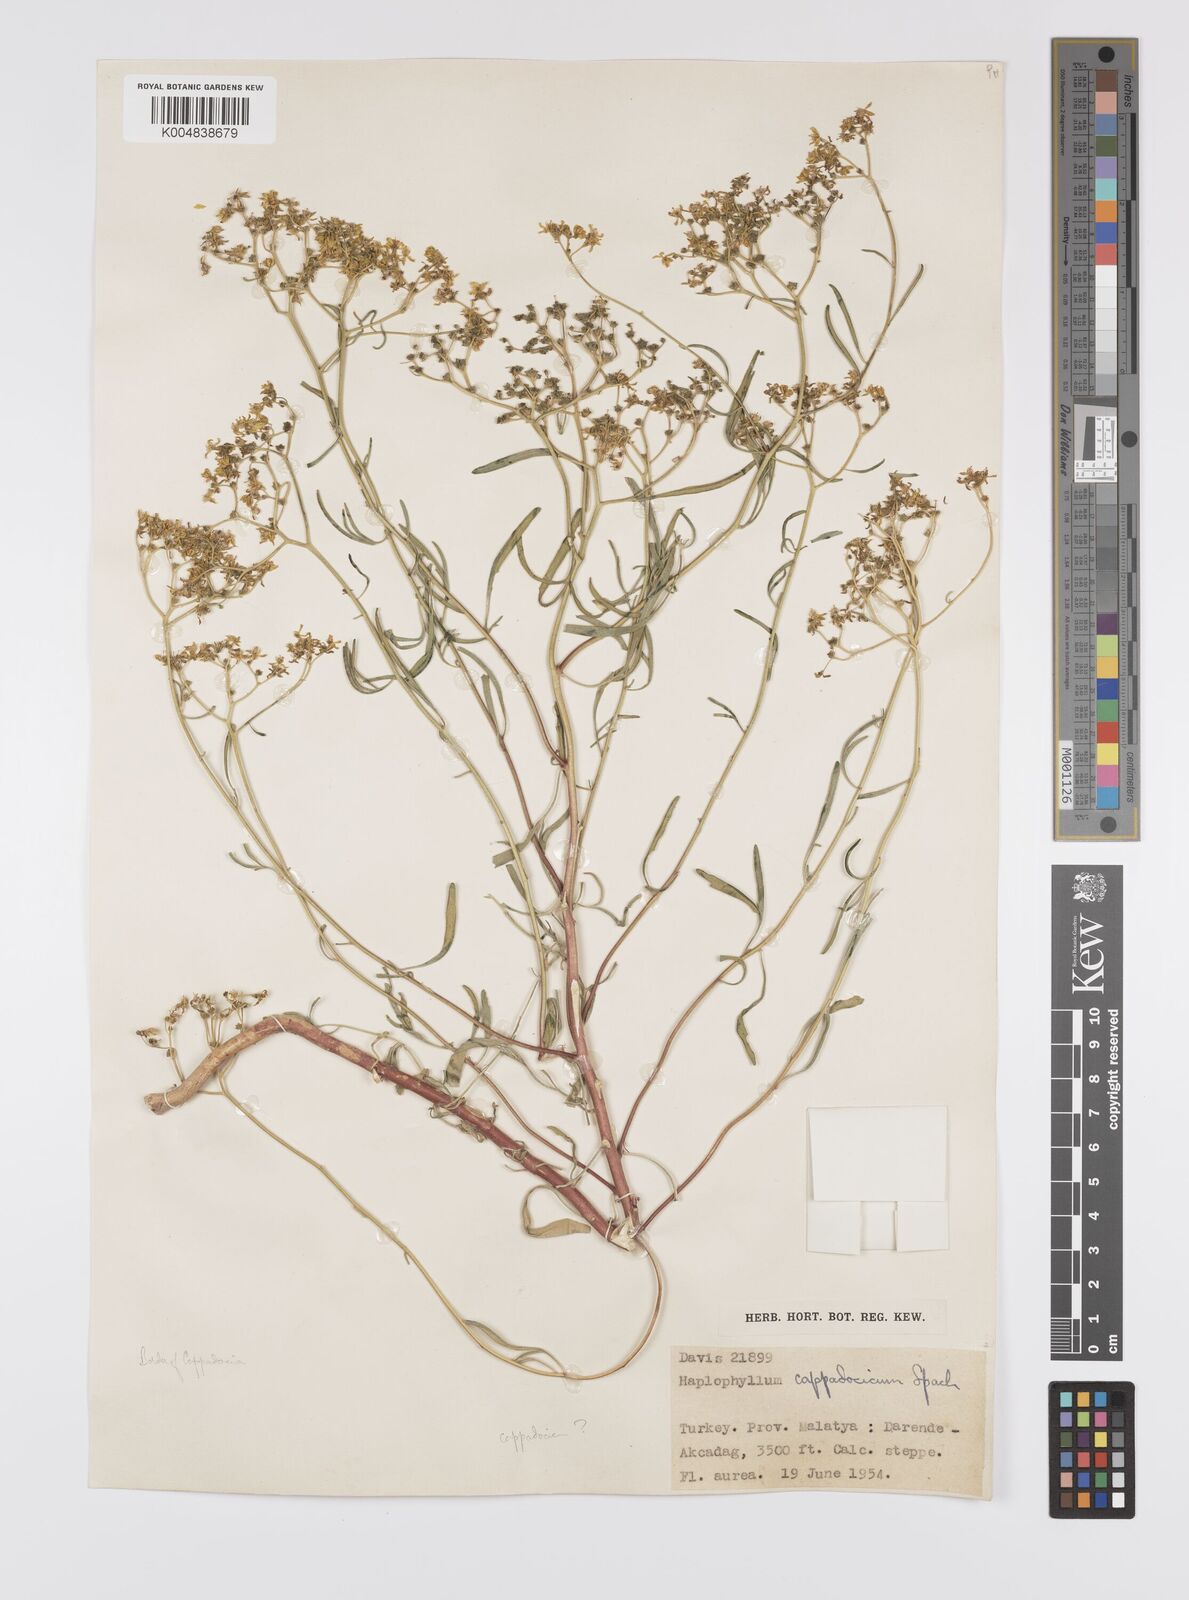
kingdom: Plantae
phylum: Tracheophyta
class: Magnoliopsida
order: Sapindales
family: Rutaceae
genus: Haplophyllum
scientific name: Haplophyllum cappadocicum
